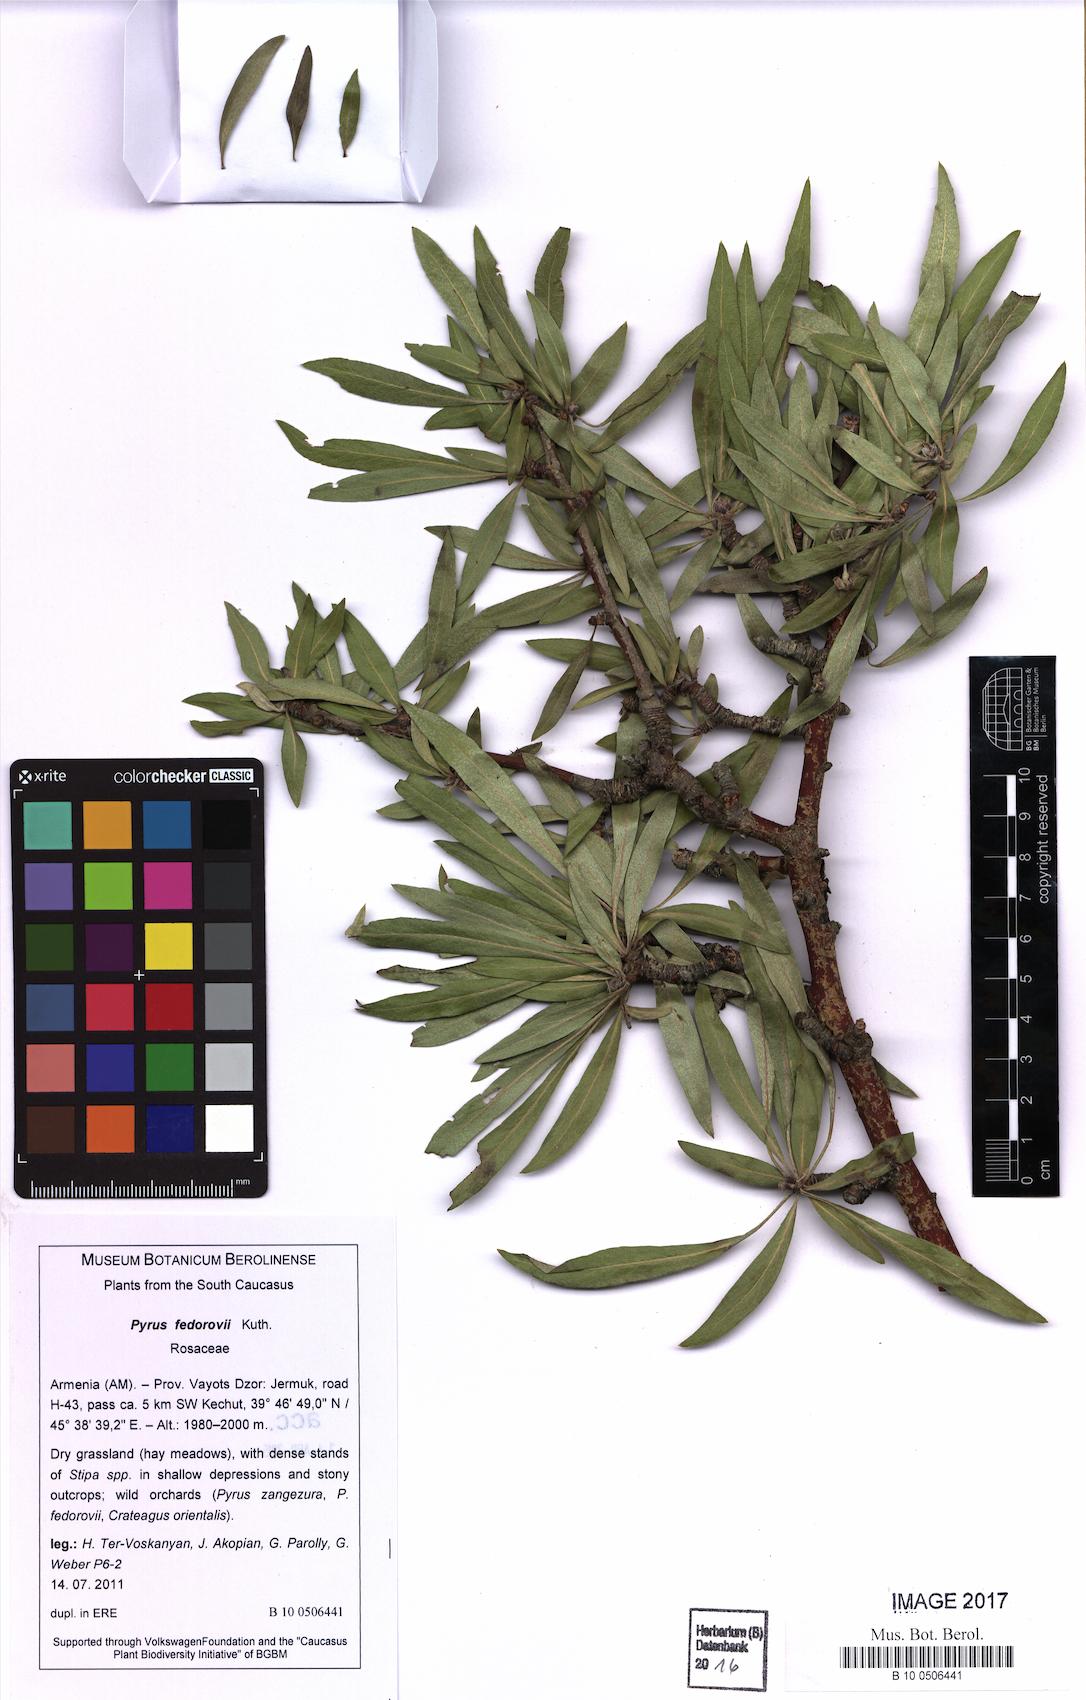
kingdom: Plantae
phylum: Tracheophyta
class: Magnoliopsida
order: Rosales
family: Rosaceae
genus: Pyrus
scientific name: Pyrus fedorovii
